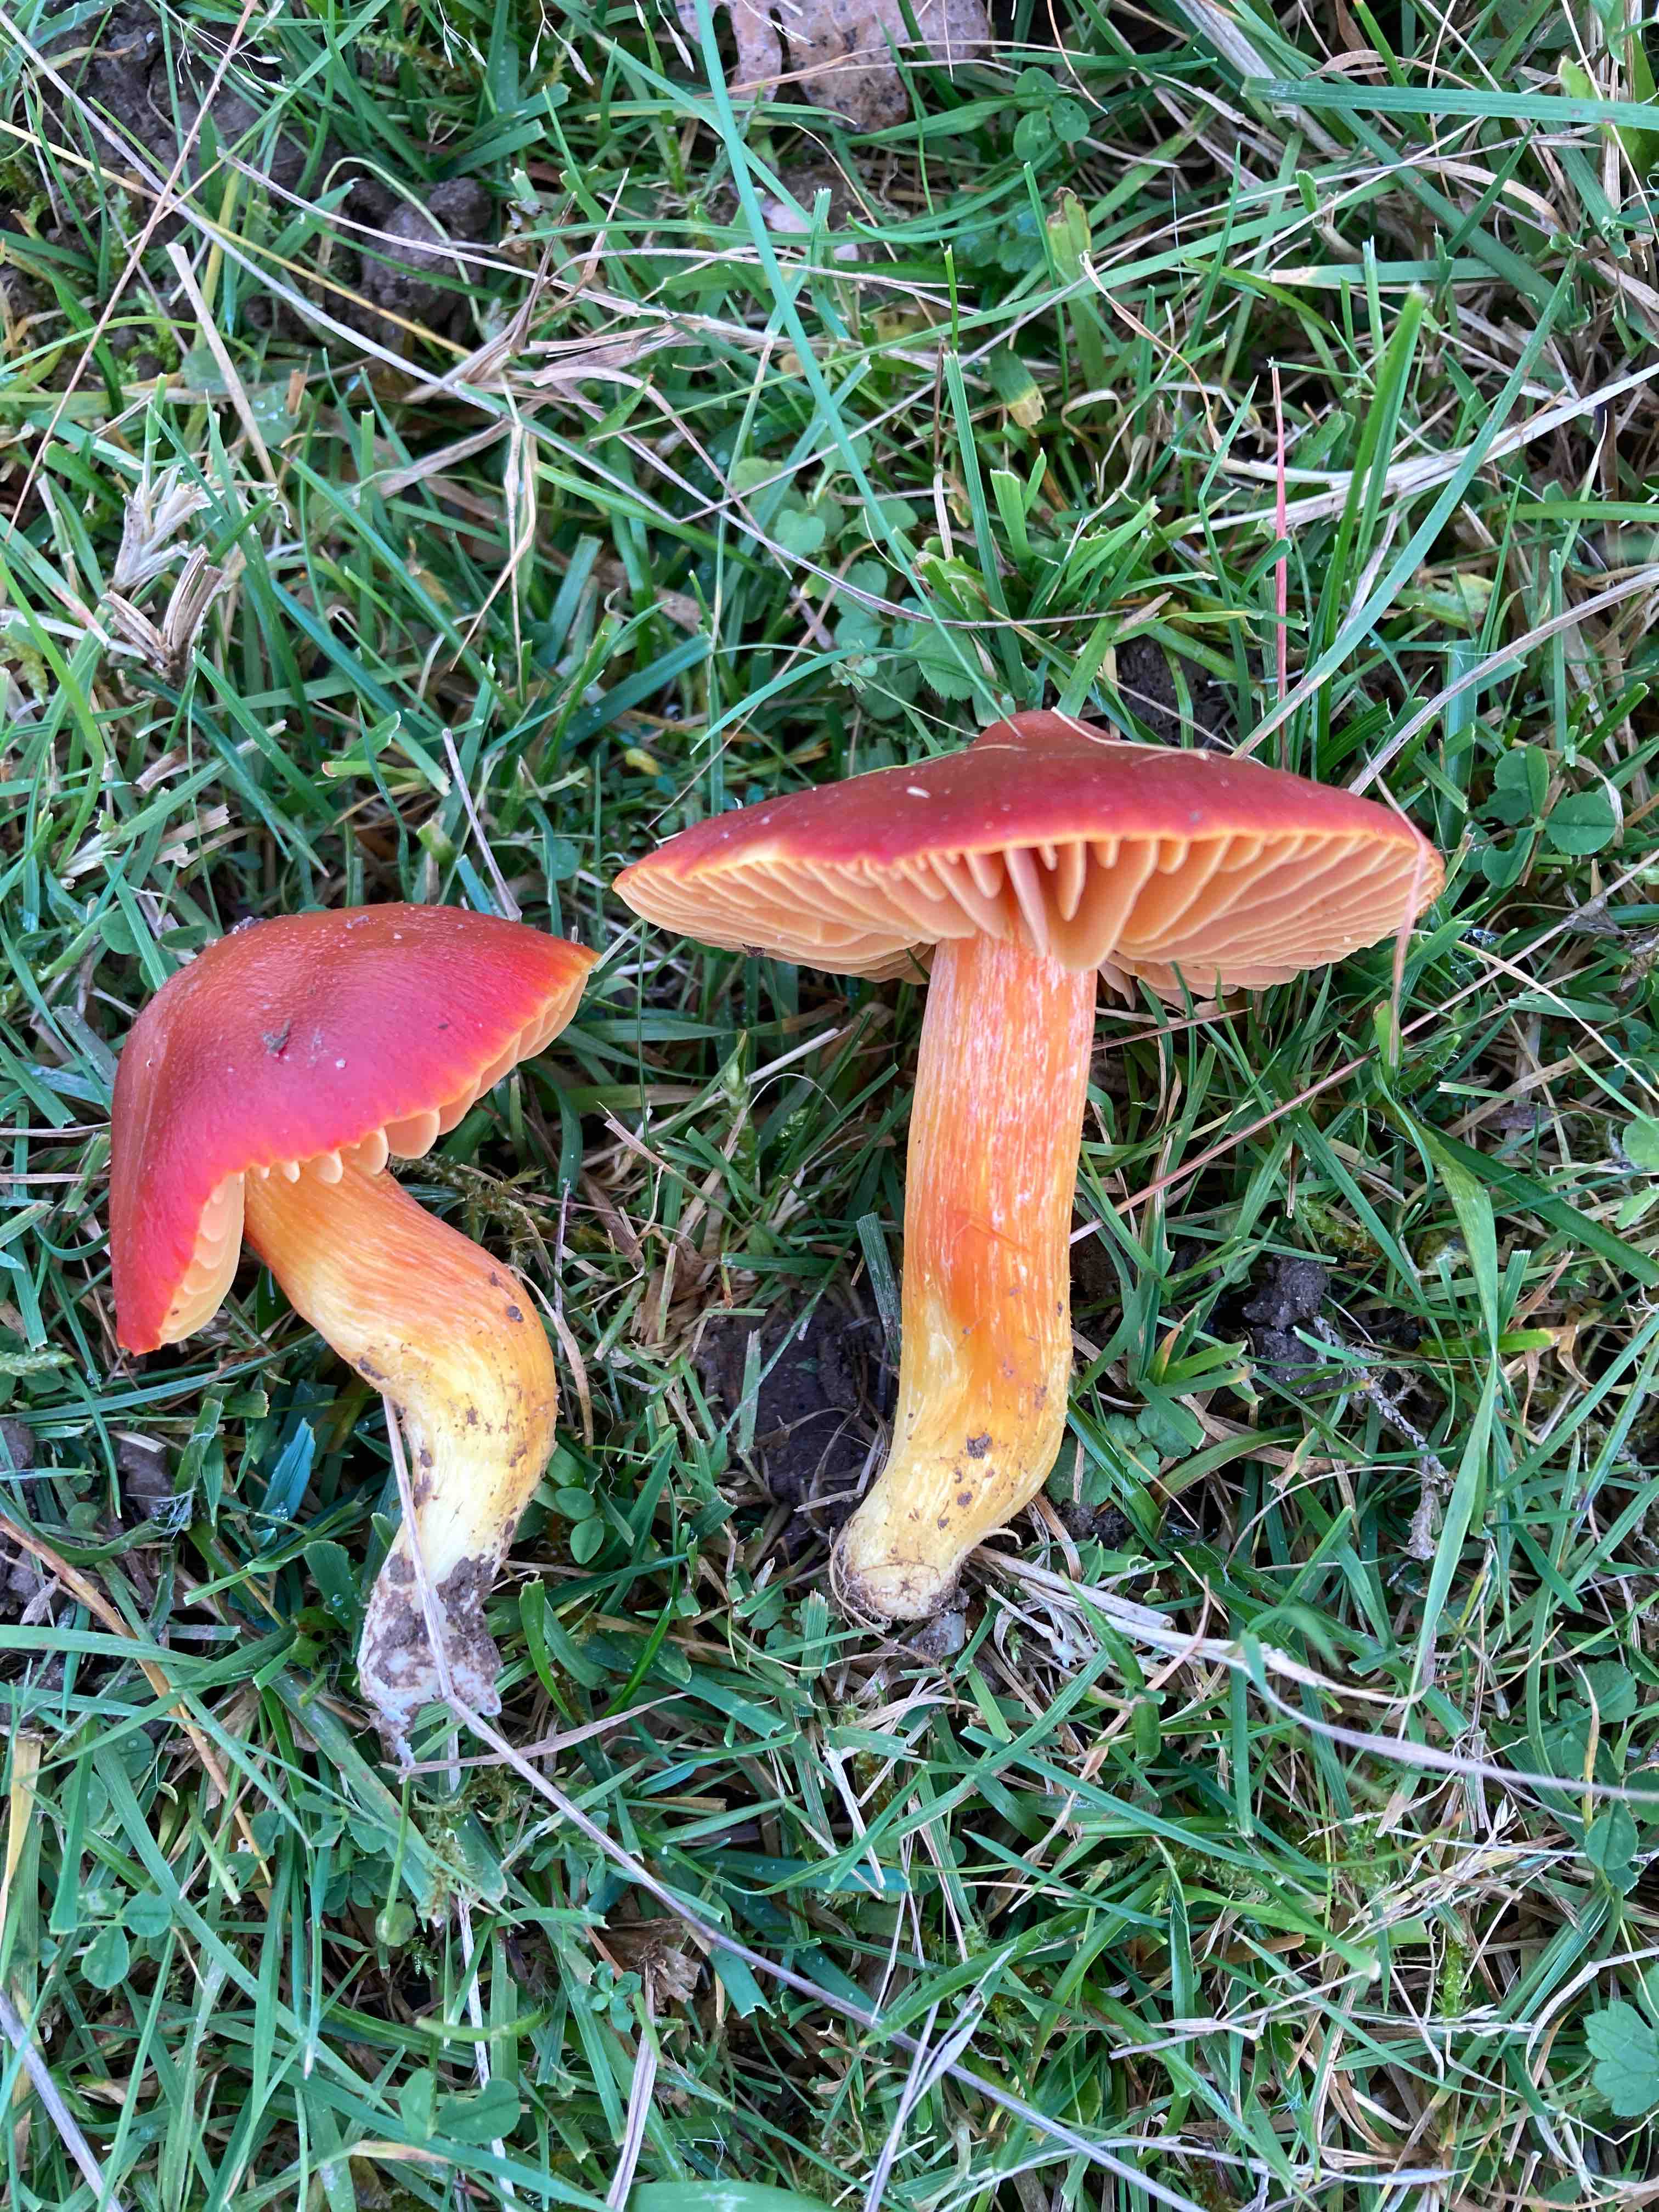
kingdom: Fungi
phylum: Basidiomycota
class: Agaricomycetes
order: Agaricales
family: Hygrophoraceae
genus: Hygrocybe
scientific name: Hygrocybe punicea
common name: skarlagen-vokshat
